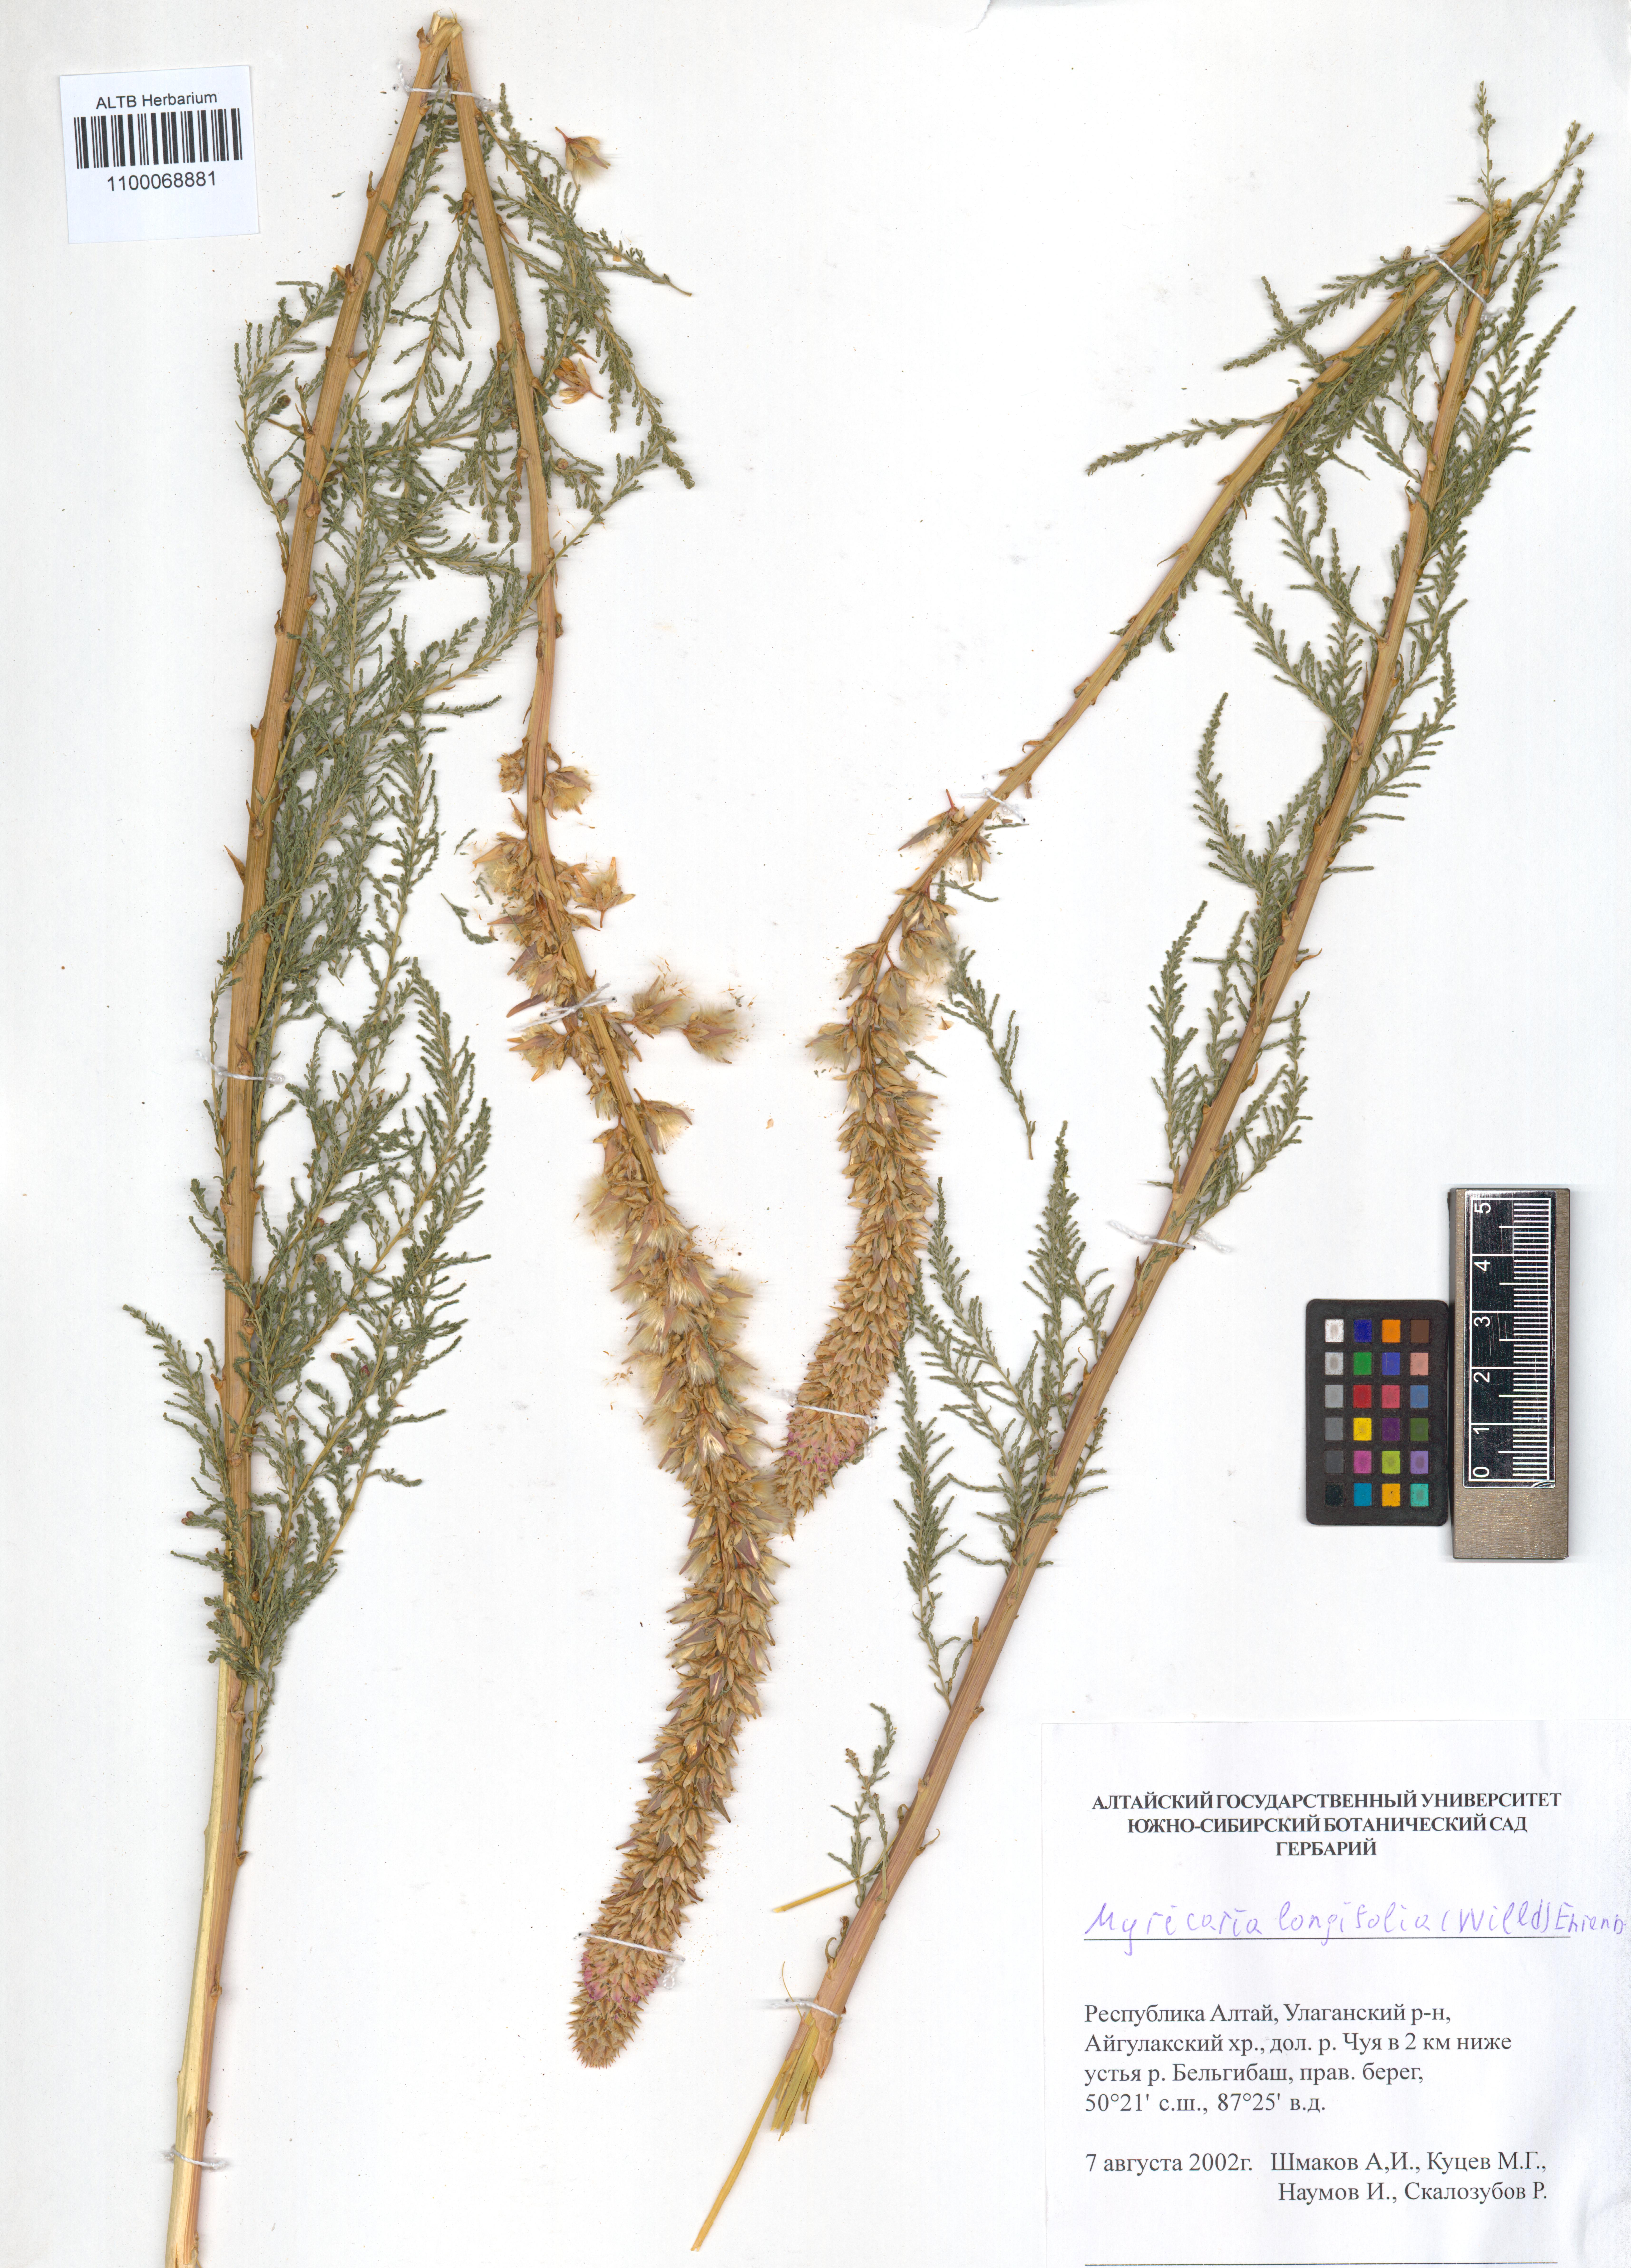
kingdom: Plantae
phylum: Tracheophyta
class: Magnoliopsida
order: Caryophyllales
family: Tamaricaceae
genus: Myricaria
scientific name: Myricaria longifolia
